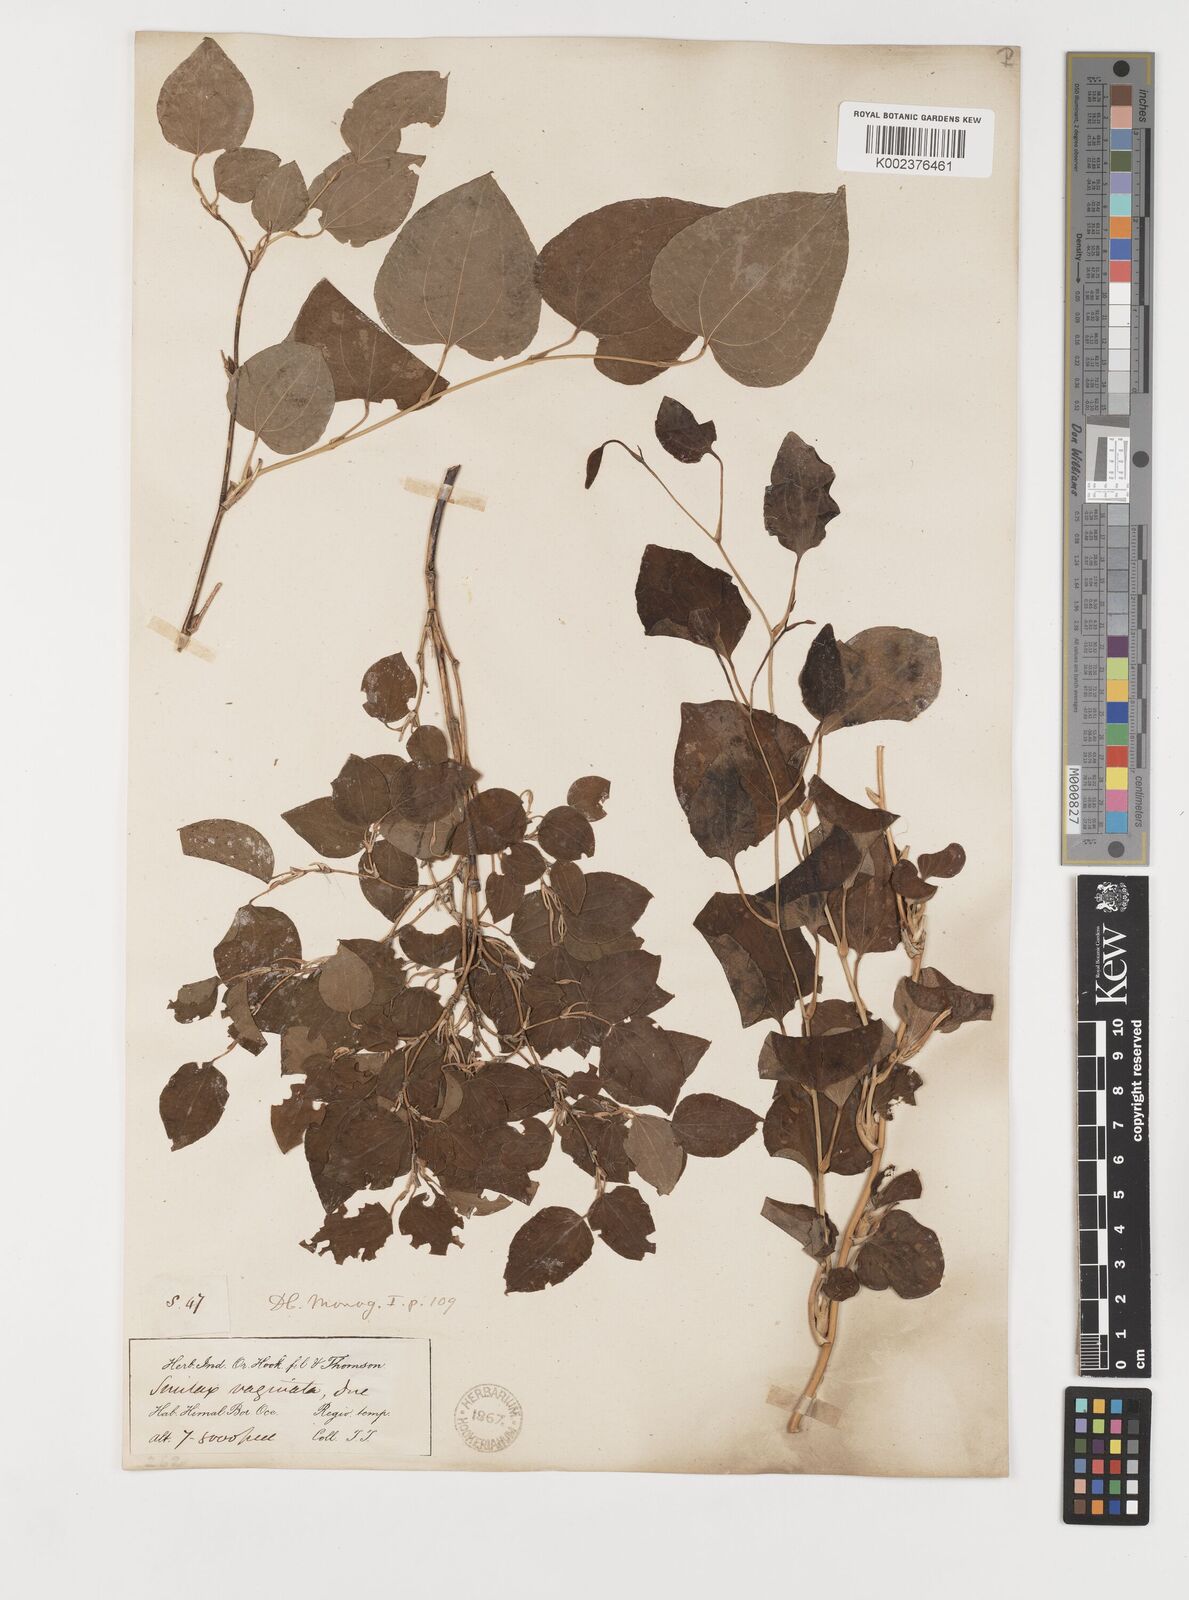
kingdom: Plantae
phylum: Tracheophyta
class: Liliopsida
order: Liliales
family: Smilacaceae
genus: Smilax
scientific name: Smilax vaginata
